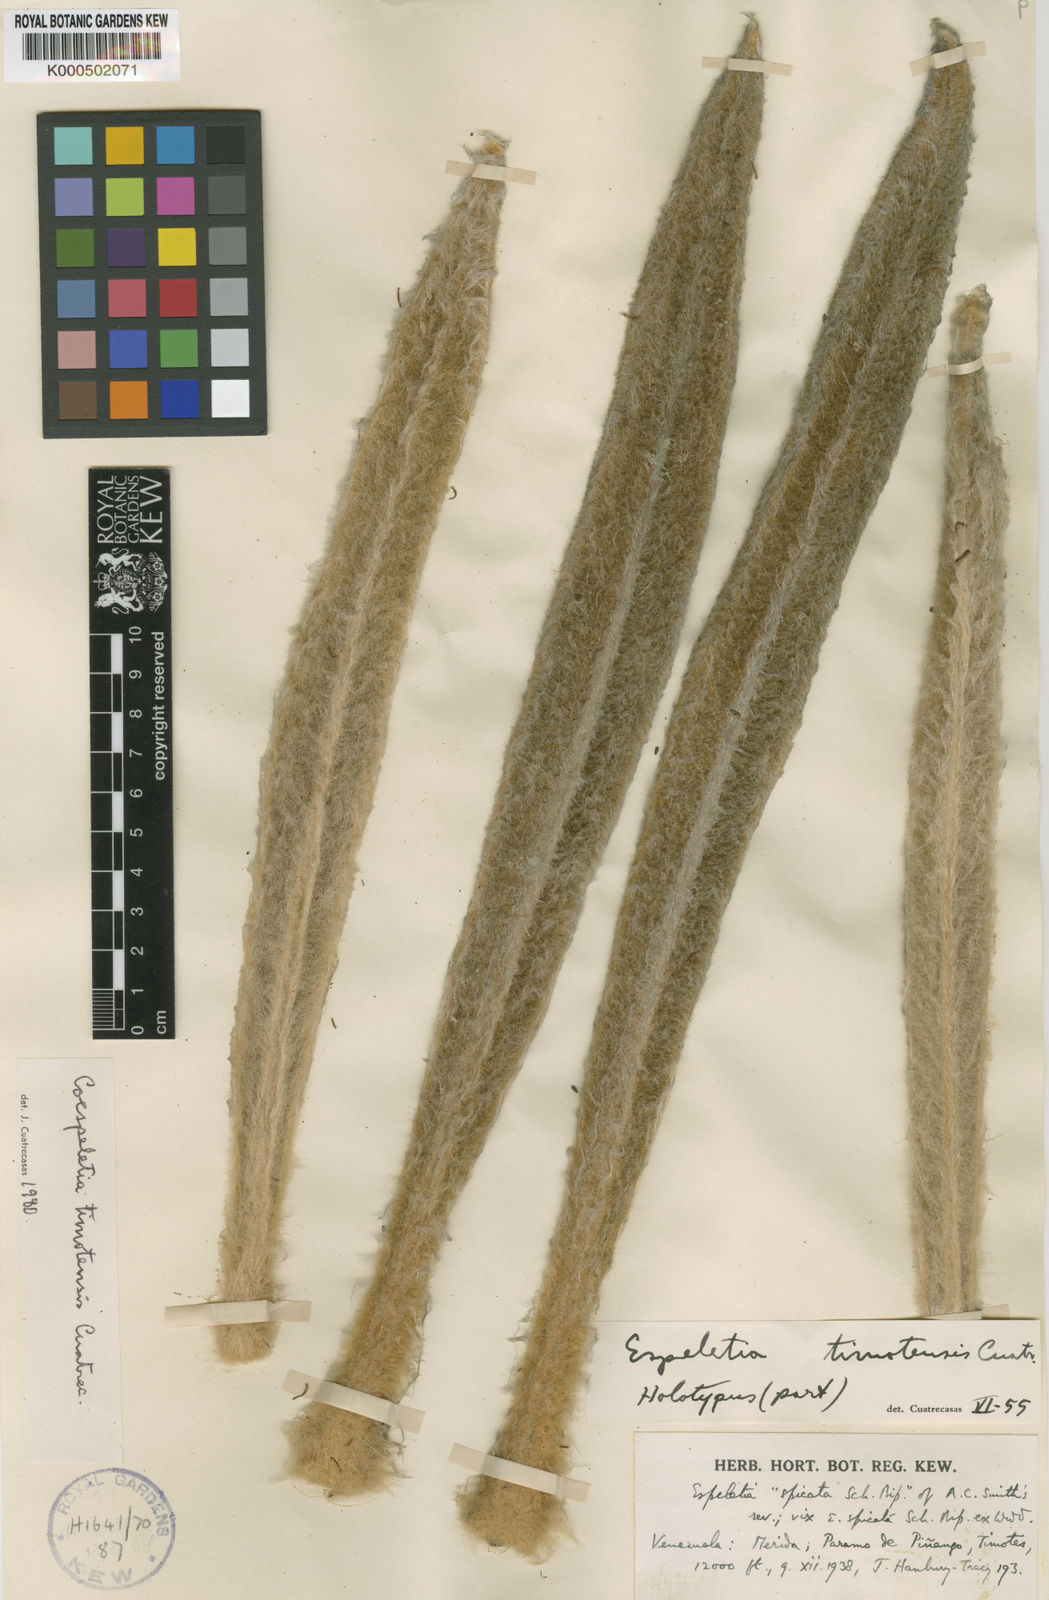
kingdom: Plantae
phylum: Tracheophyta
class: Magnoliopsida
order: Asterales
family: Asteraceae
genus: Espeletia
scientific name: Espeletia timotensis
